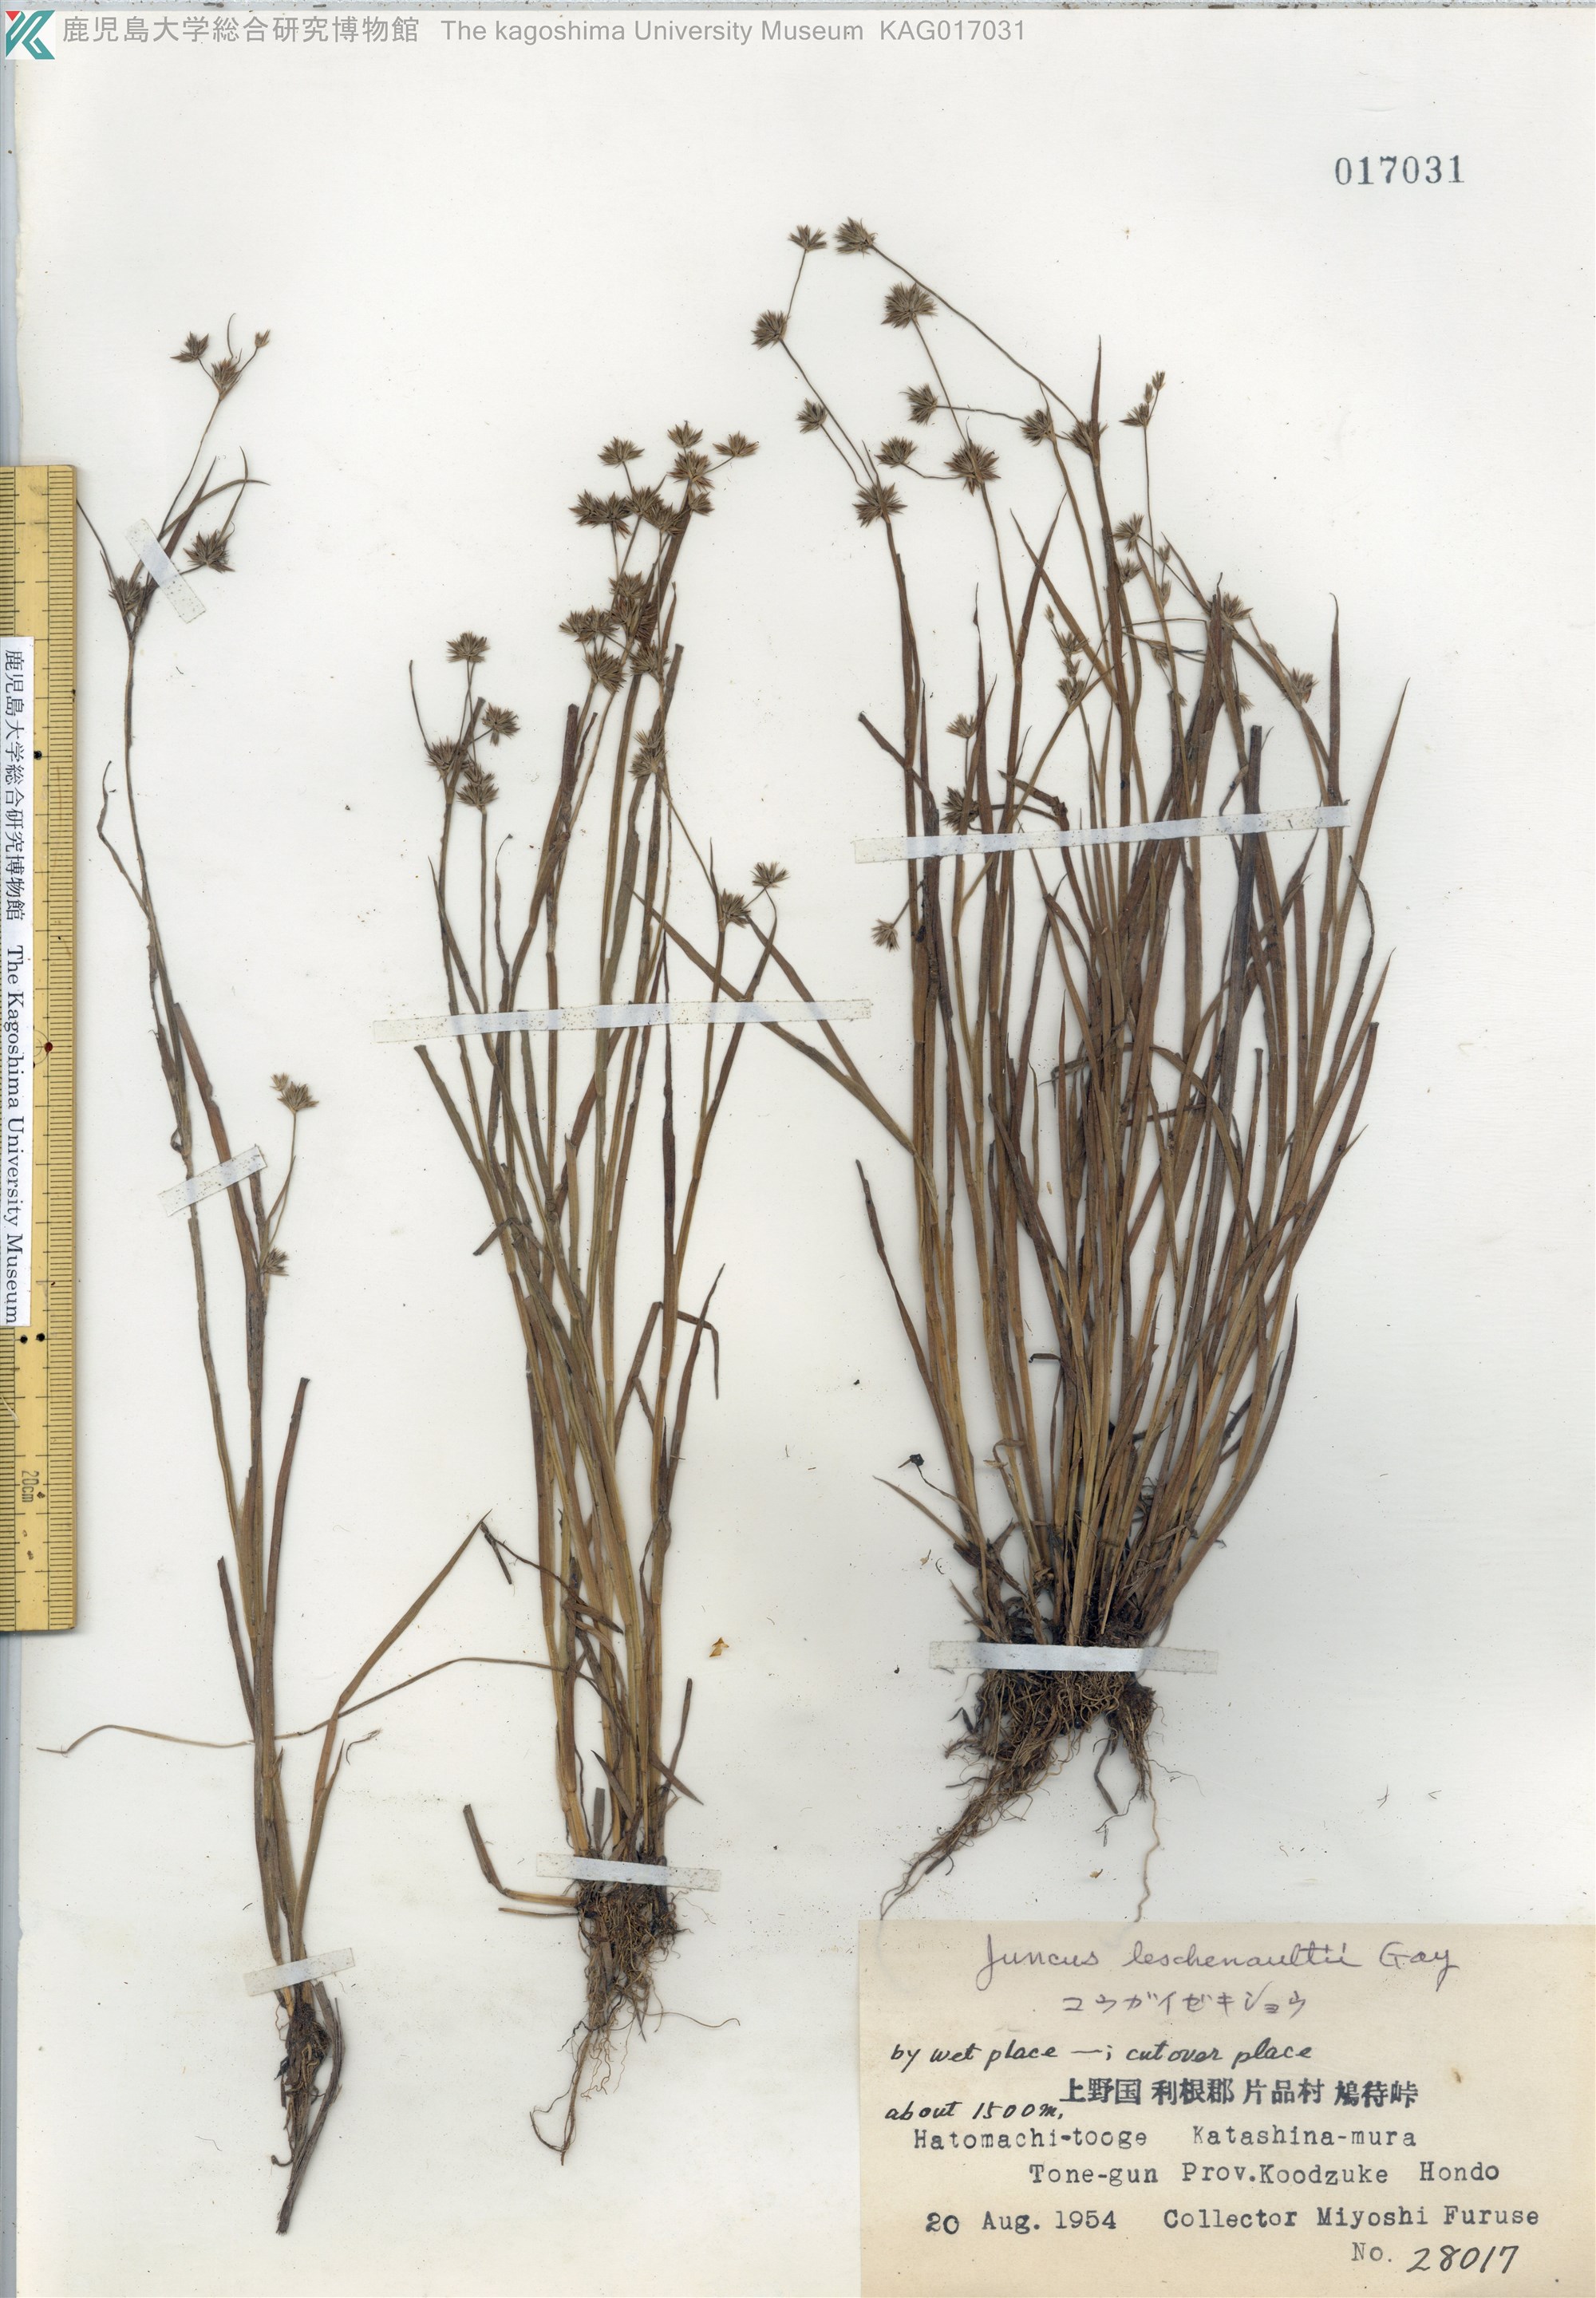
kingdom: Plantae
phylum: Tracheophyta
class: Liliopsida
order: Poales
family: Juncaceae
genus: Juncus
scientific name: Juncus prismatocarpus
